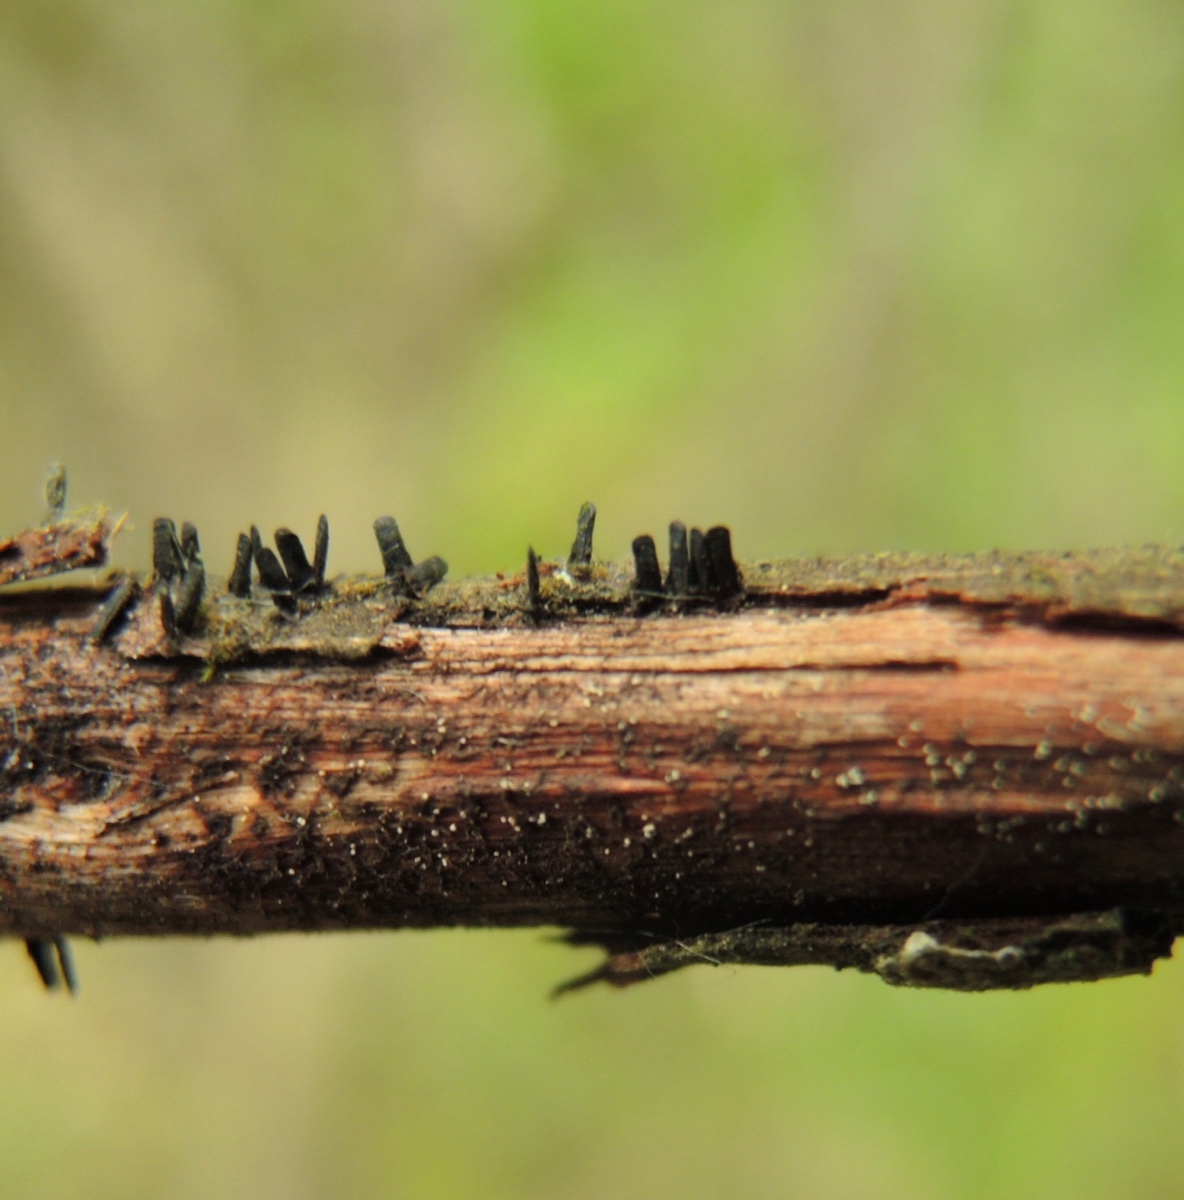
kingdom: Fungi
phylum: Ascomycota
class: Eurotiomycetes
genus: Glyphium
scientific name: Glyphium elatum
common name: kuløkse
